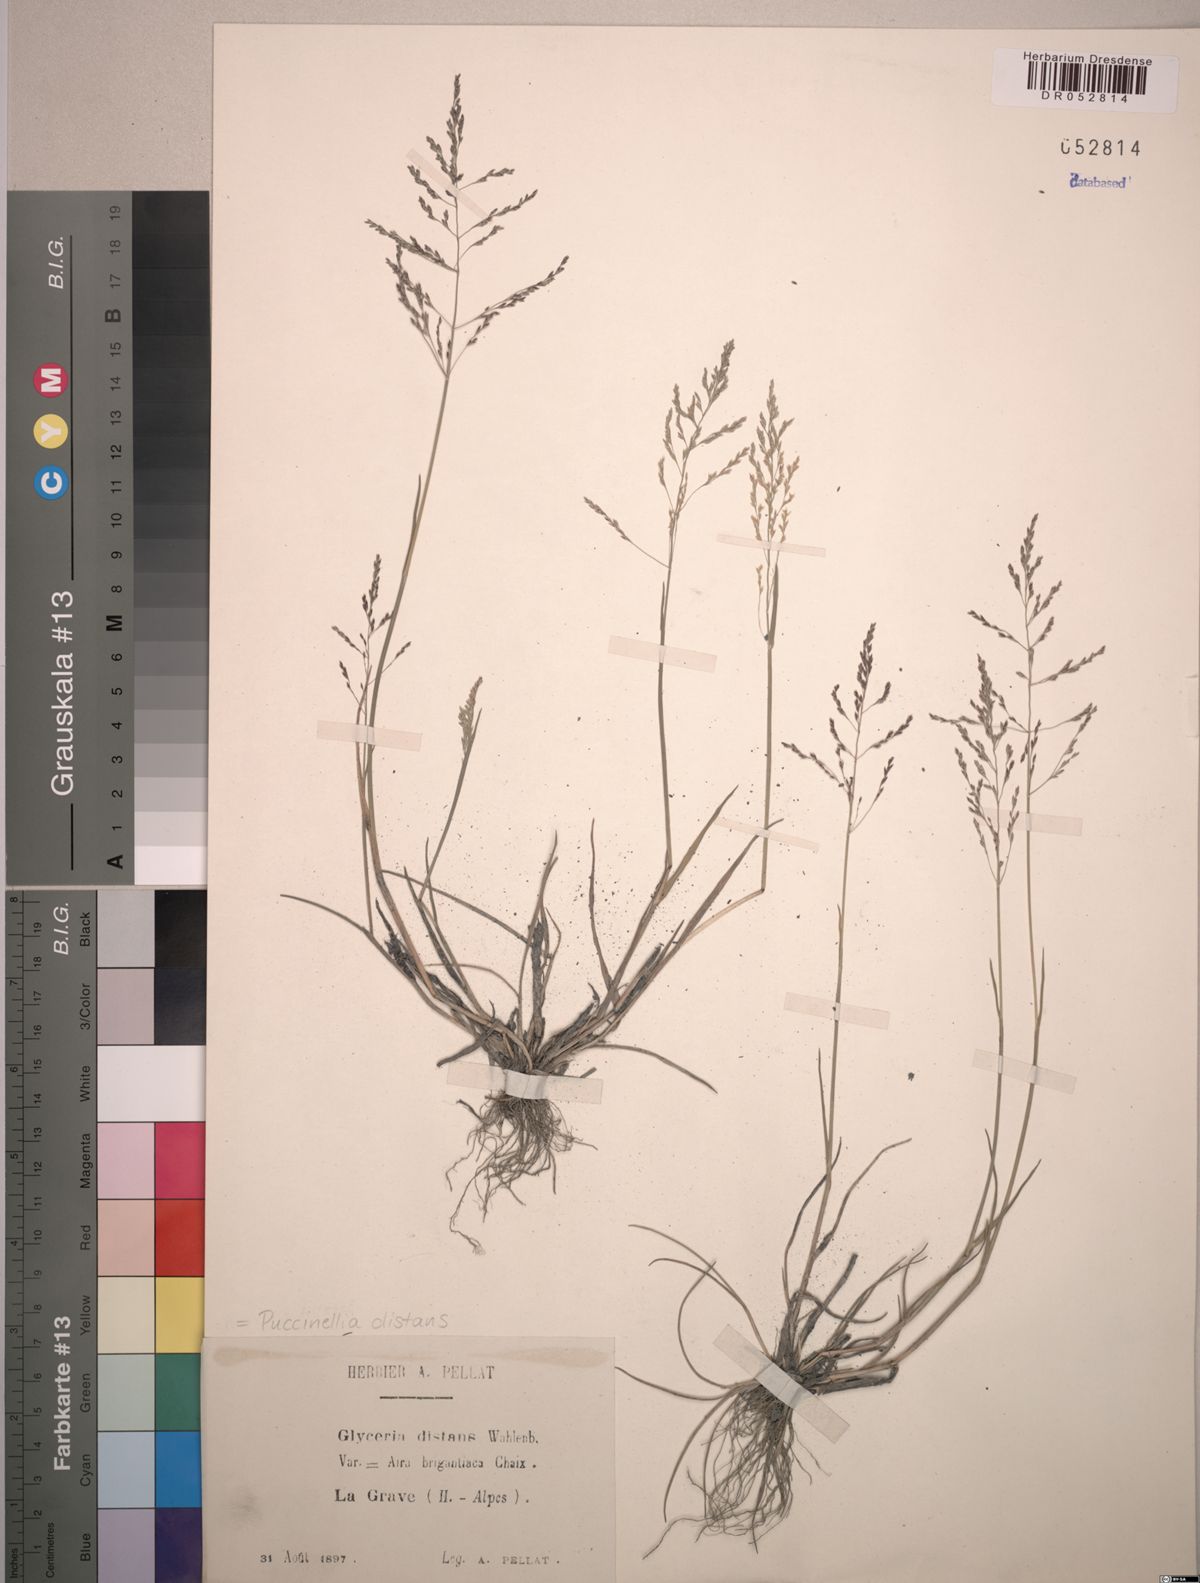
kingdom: Plantae
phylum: Tracheophyta
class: Liliopsida
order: Poales
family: Poaceae
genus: Puccinellia
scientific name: Puccinellia distans
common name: Weeping alkaligrass
